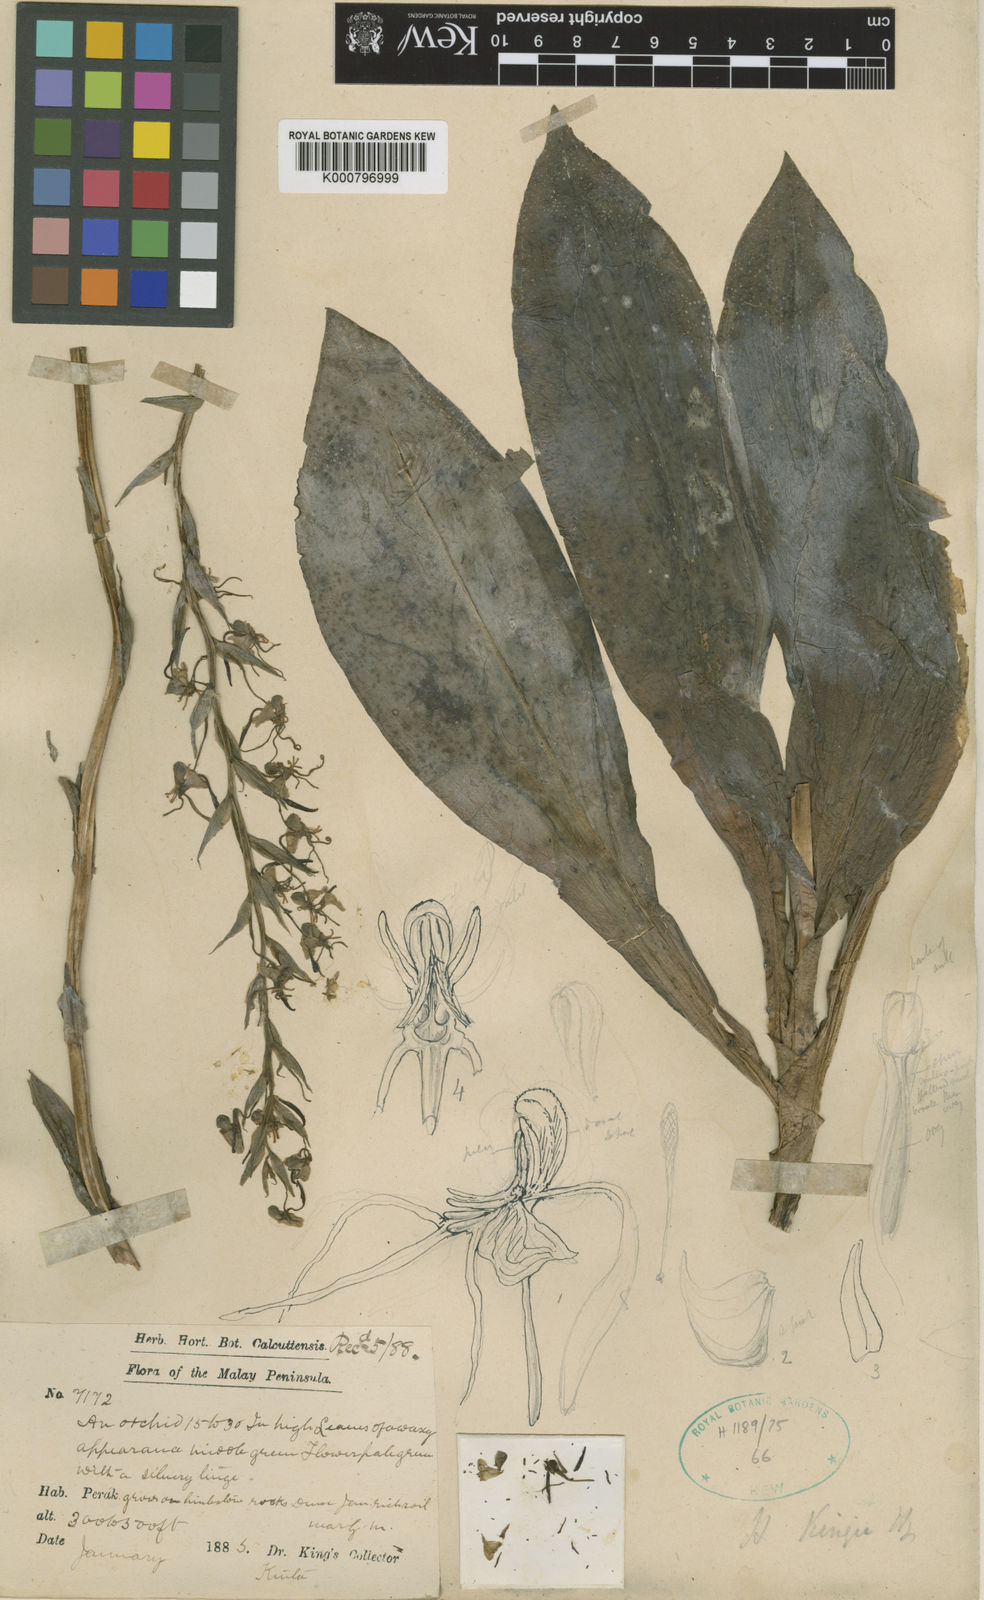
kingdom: Plantae
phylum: Tracheophyta
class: Liliopsida
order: Asparagales
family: Orchidaceae
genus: Habenaria
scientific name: Habenaria kingii
